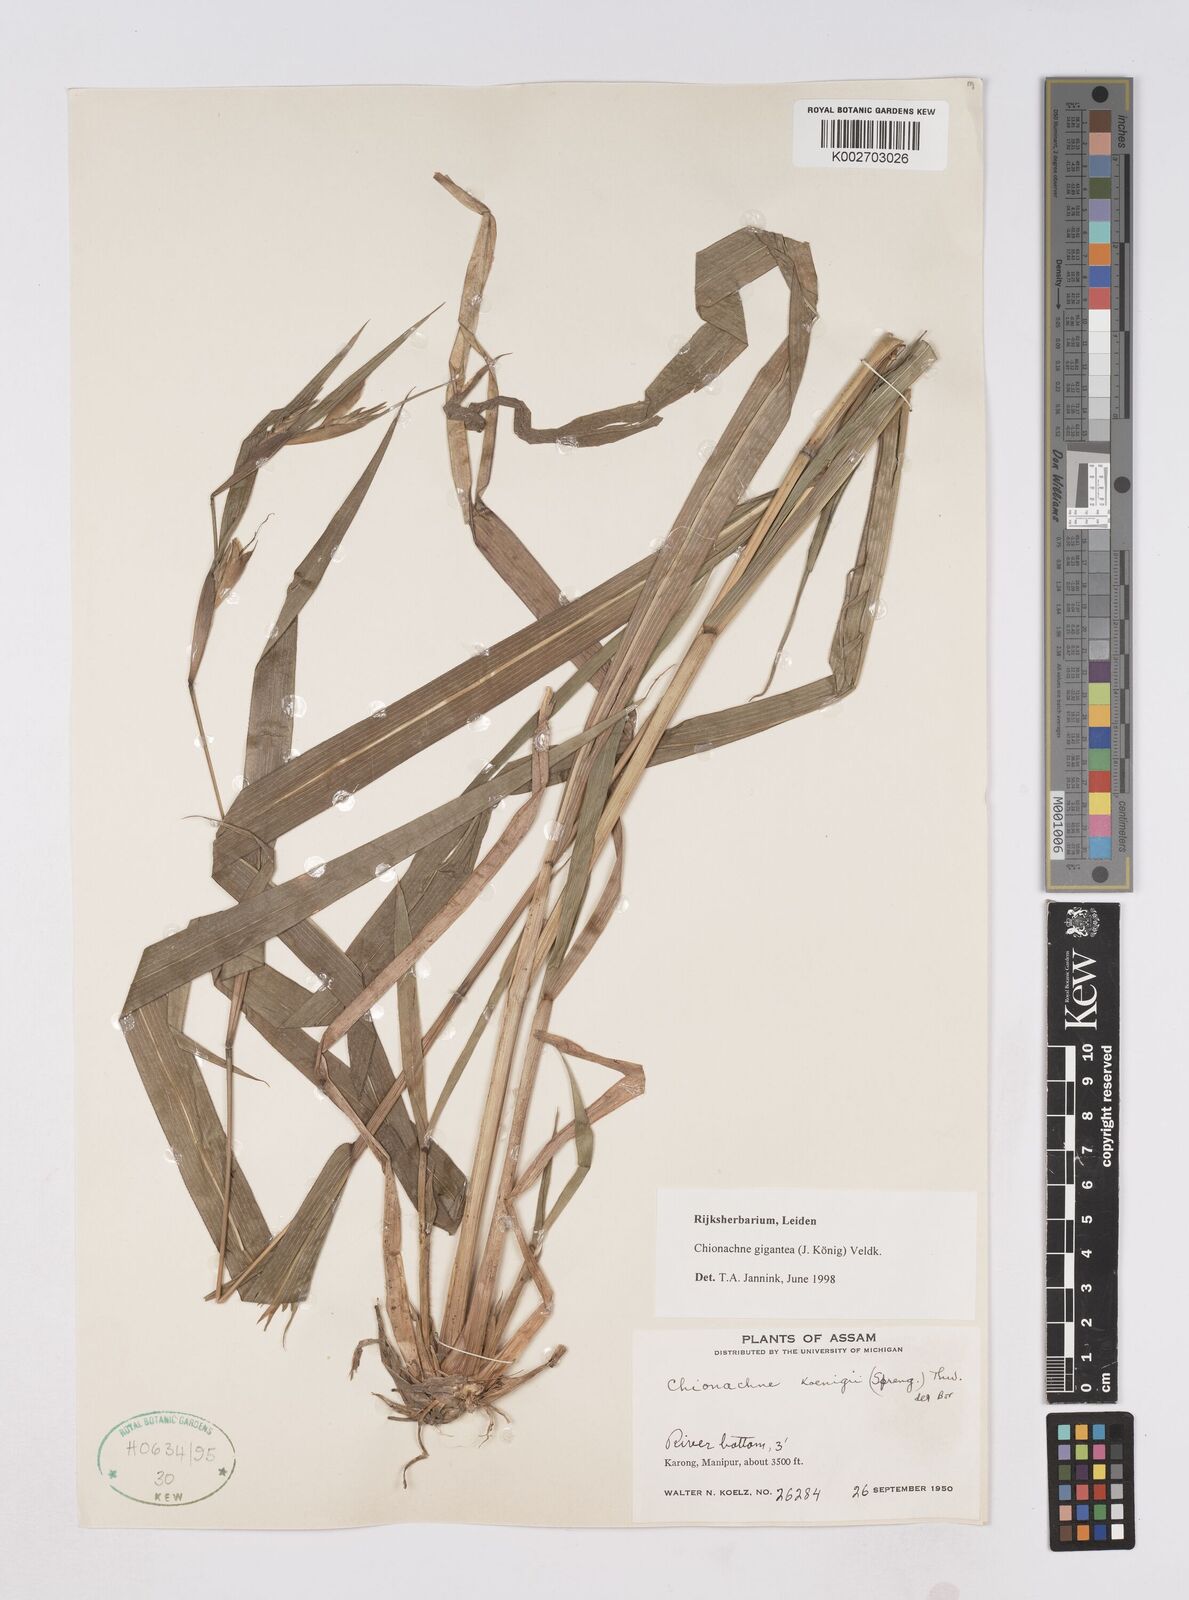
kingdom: Plantae
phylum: Tracheophyta
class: Liliopsida
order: Poales
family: Poaceae
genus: Polytoca
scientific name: Polytoca gigantea
